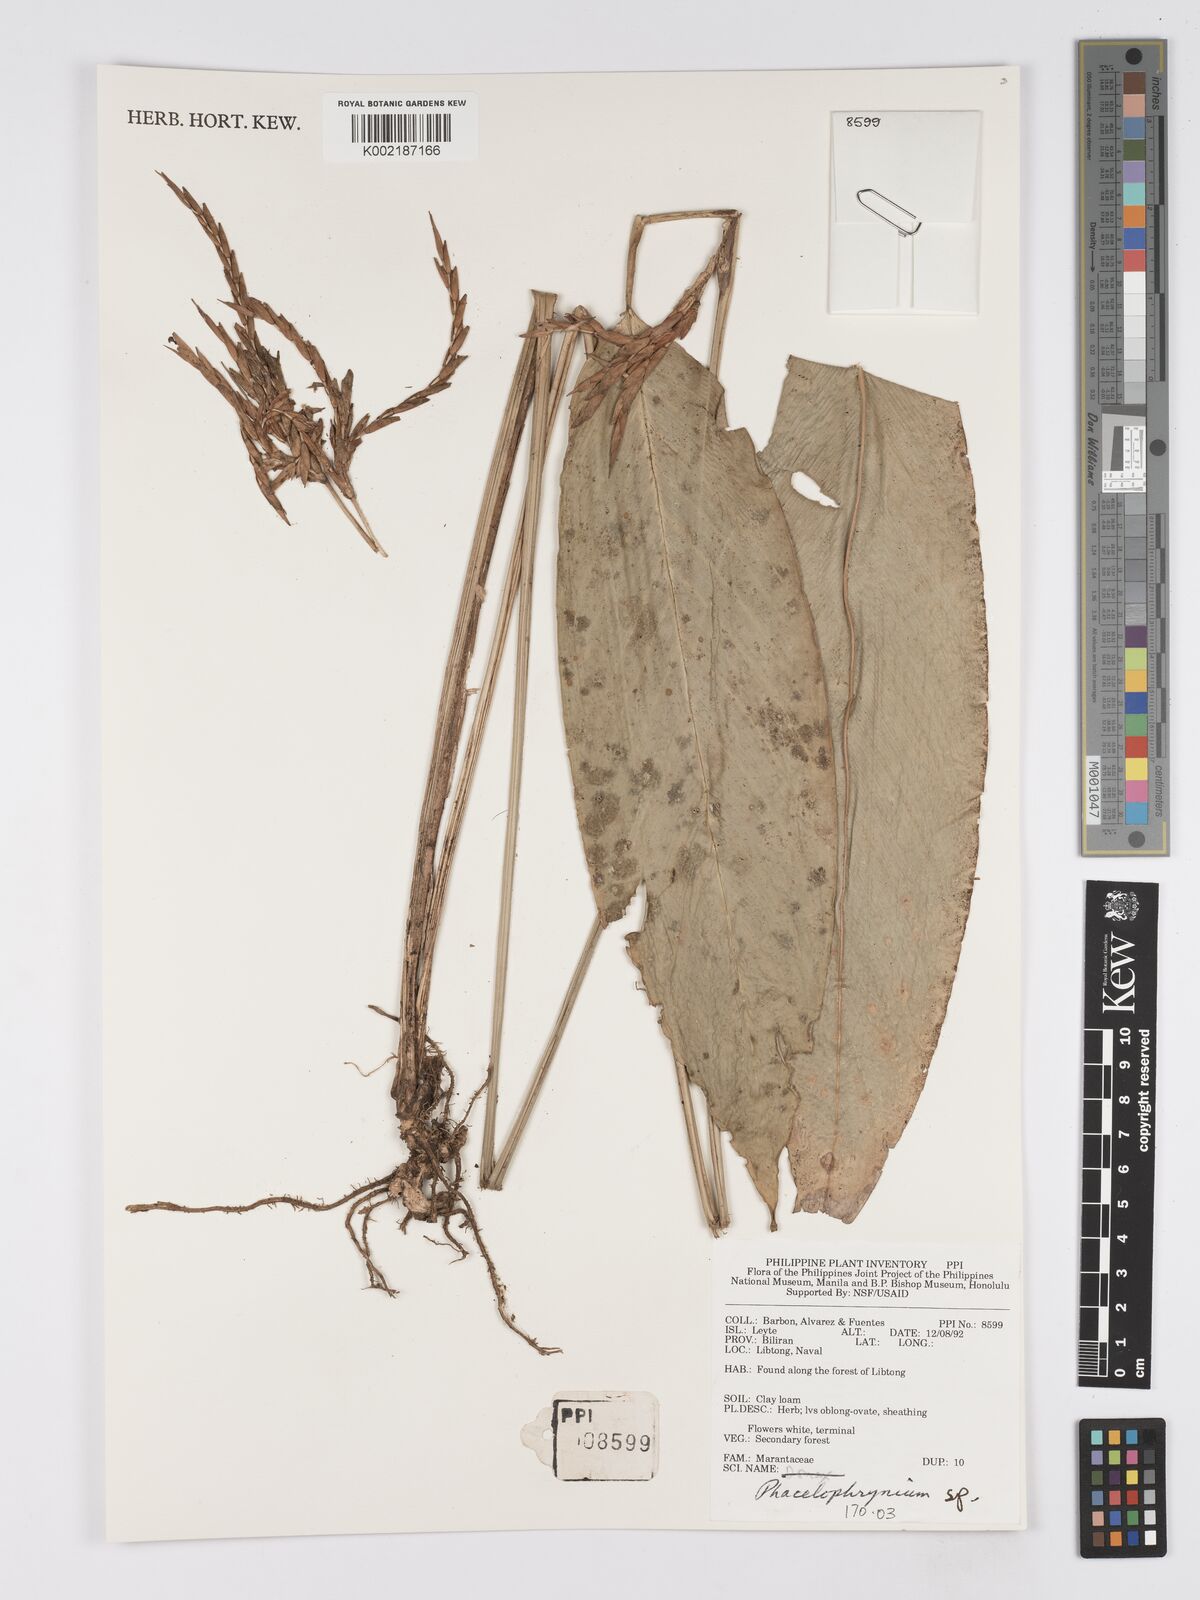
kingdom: Plantae
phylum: Tracheophyta
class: Liliopsida
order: Zingiberales
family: Marantaceae
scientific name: Marantaceae
